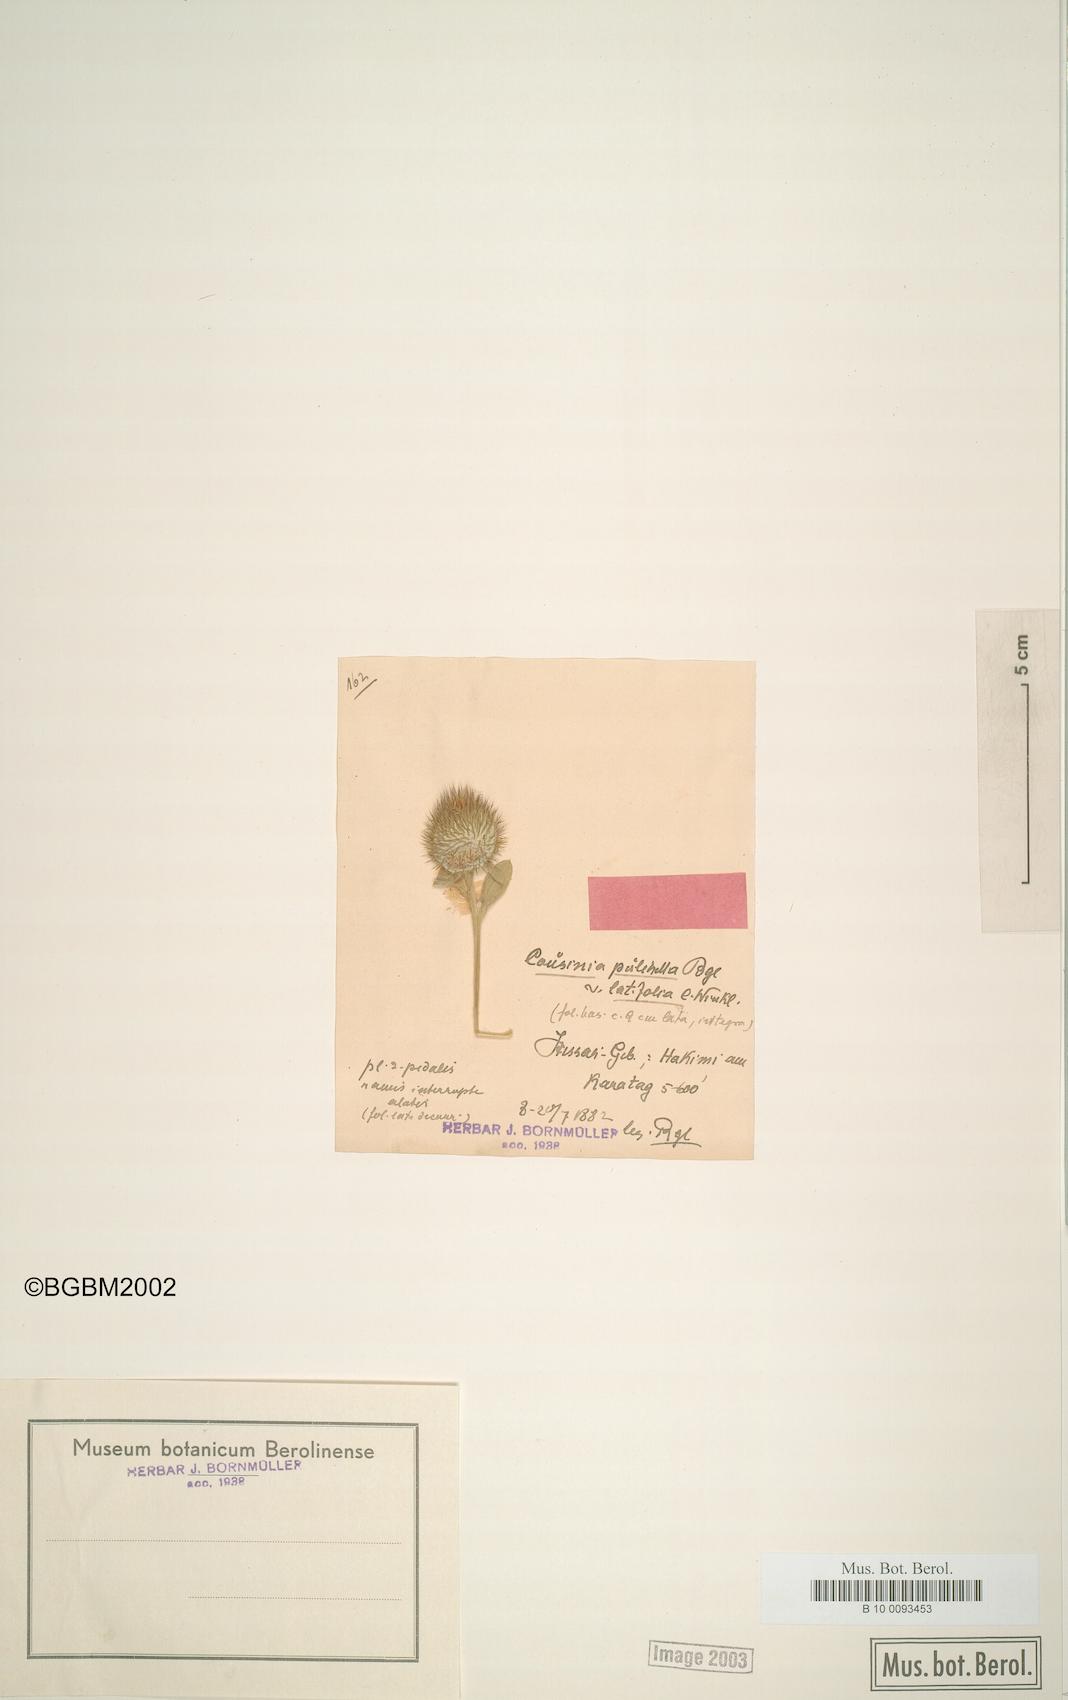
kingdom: Plantae
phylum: Tracheophyta
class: Magnoliopsida
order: Asterales
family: Asteraceae
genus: Cousinia
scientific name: Cousinia pulchella
